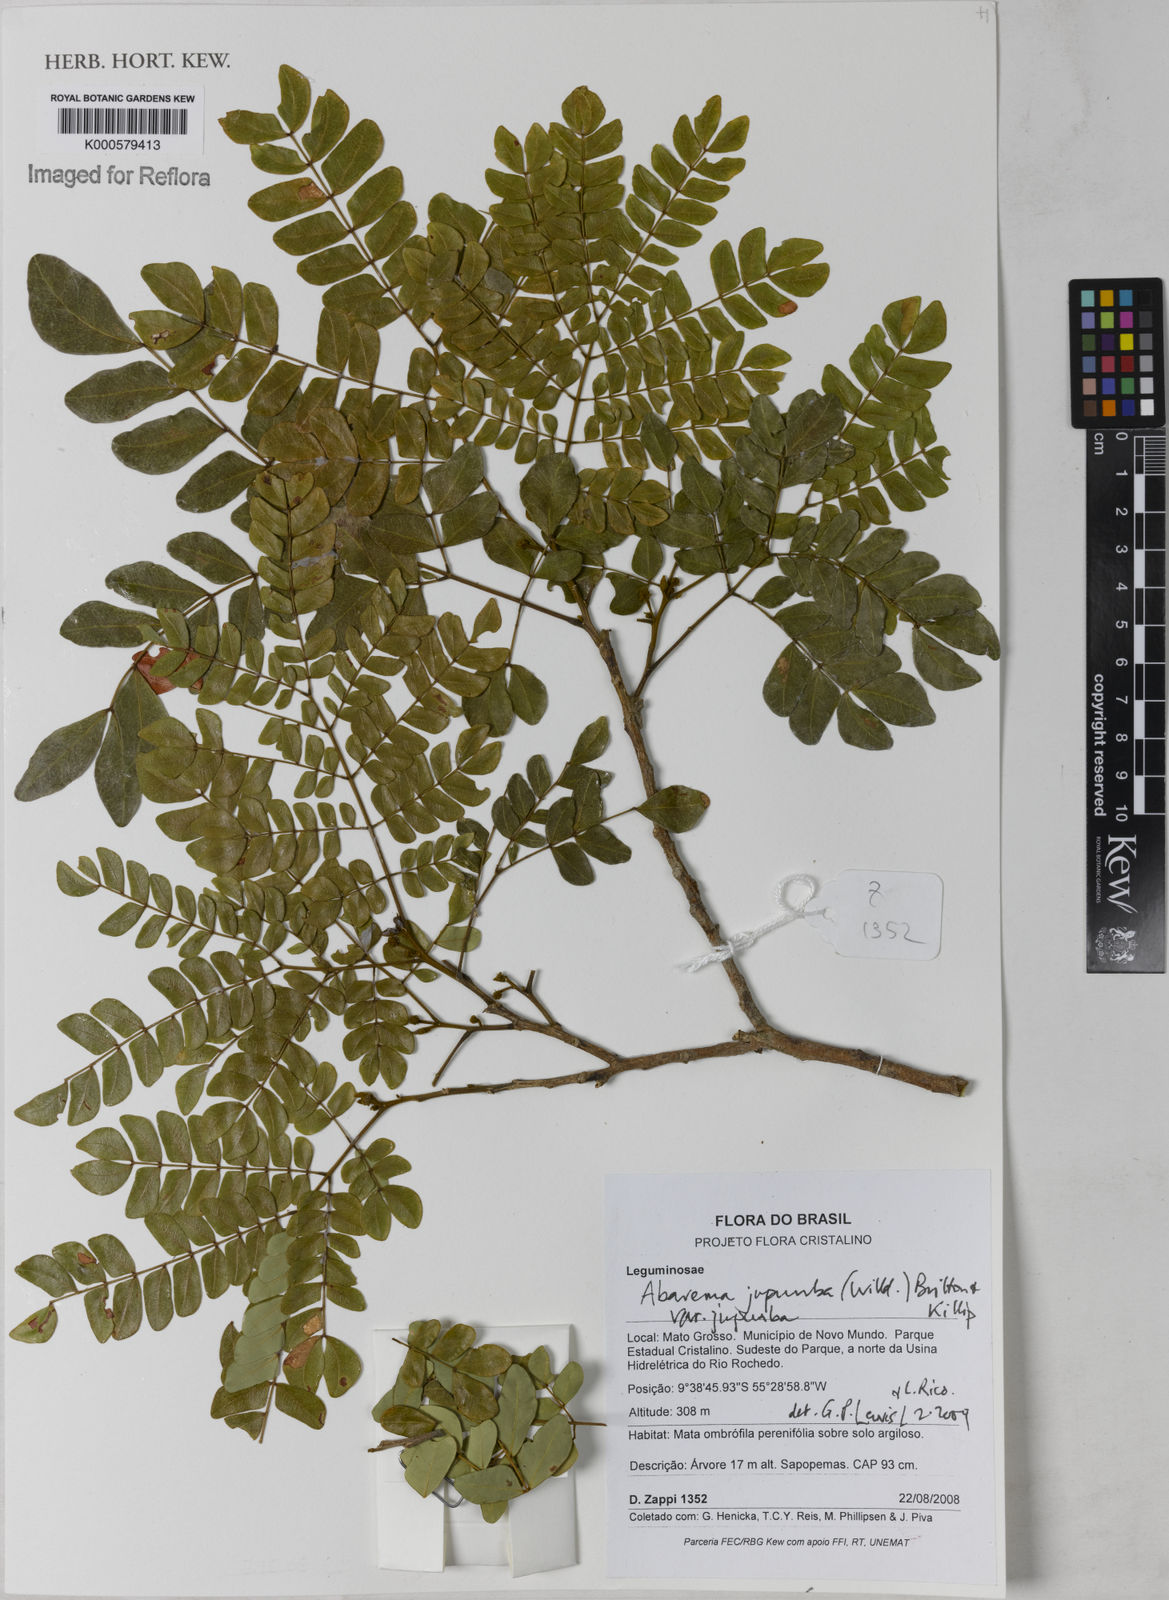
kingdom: Plantae
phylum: Tracheophyta
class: Magnoliopsida
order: Fabales
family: Fabaceae
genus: Jupunba
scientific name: Jupunba trapezifolia
